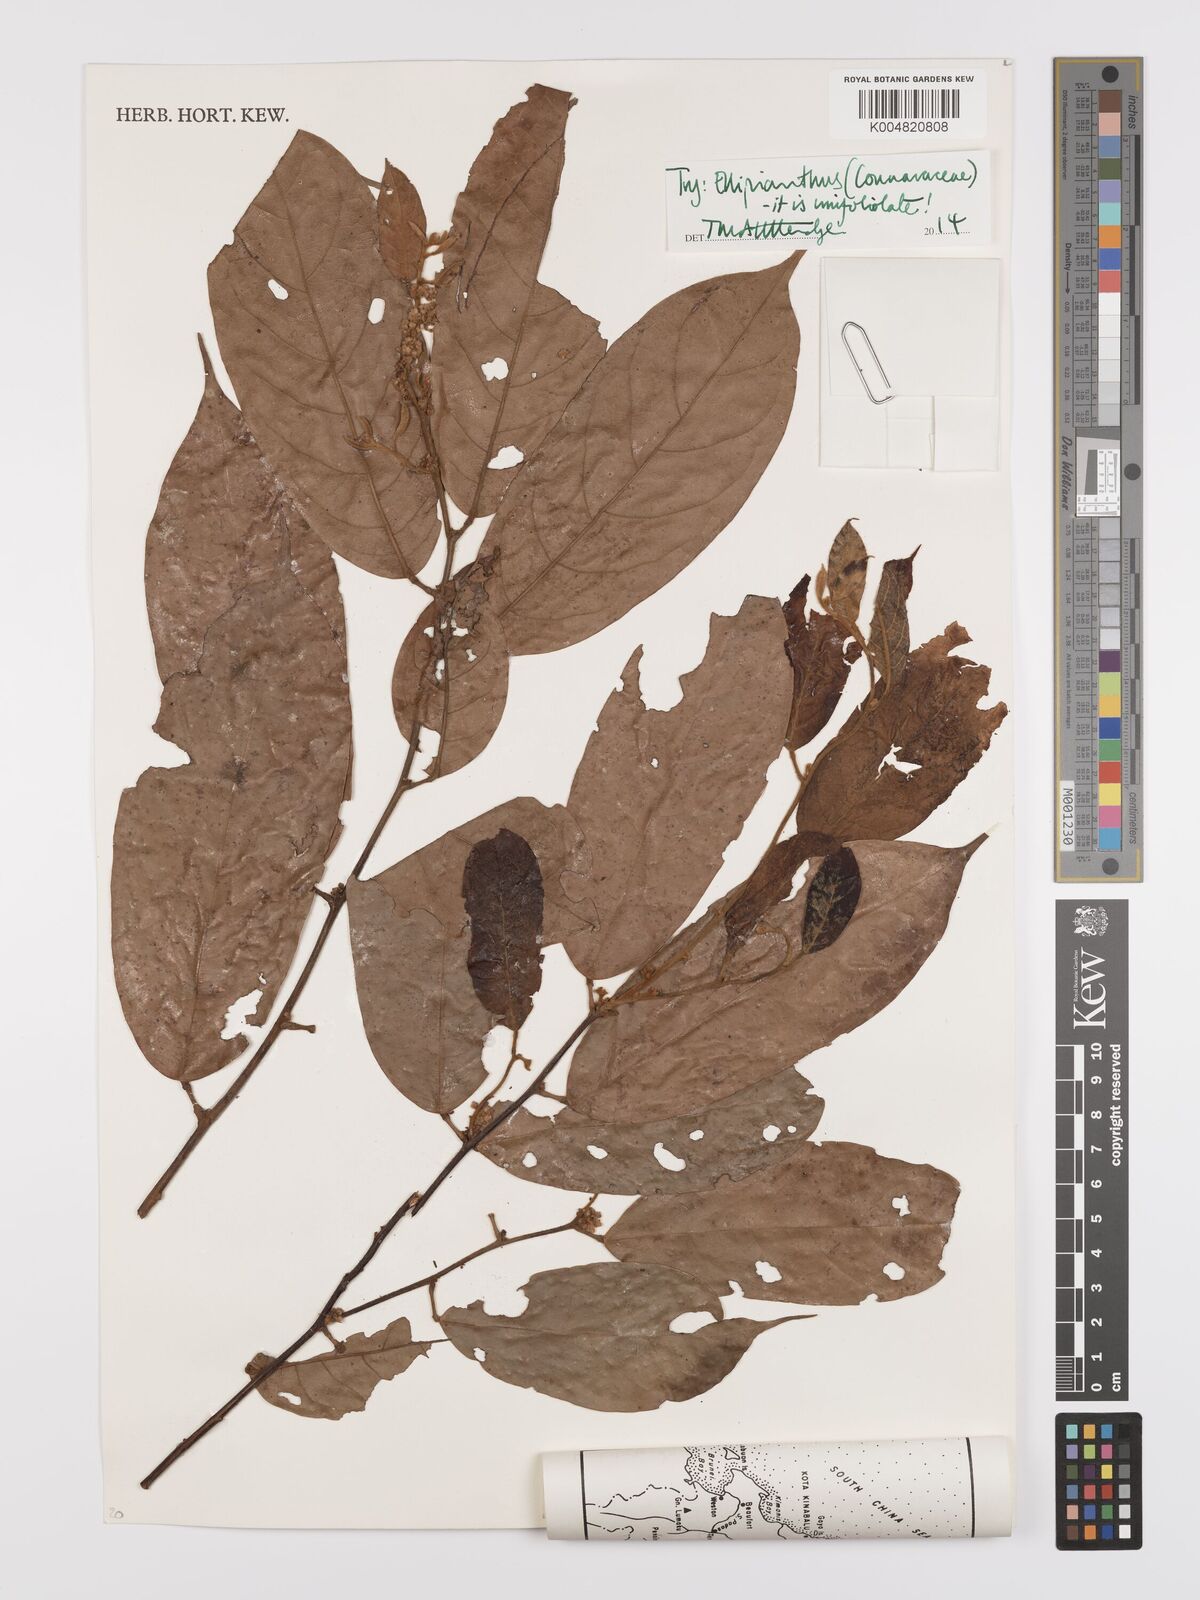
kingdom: Plantae
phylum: Tracheophyta
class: Magnoliopsida
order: Oxalidales
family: Connaraceae
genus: Ellipanthus
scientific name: Ellipanthus
